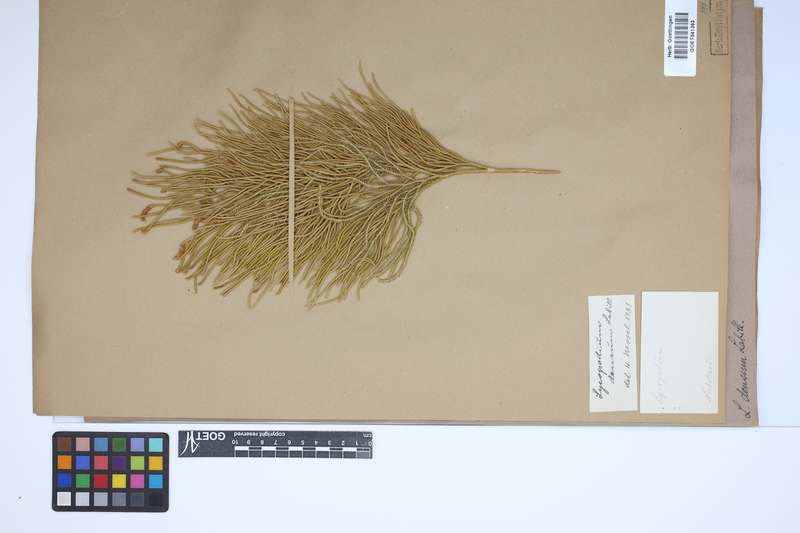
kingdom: Plantae
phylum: Tracheophyta
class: Lycopodiopsida
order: Lycopodiales
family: Lycopodiaceae
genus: Pseudolycopodium
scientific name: Pseudolycopodium densum
